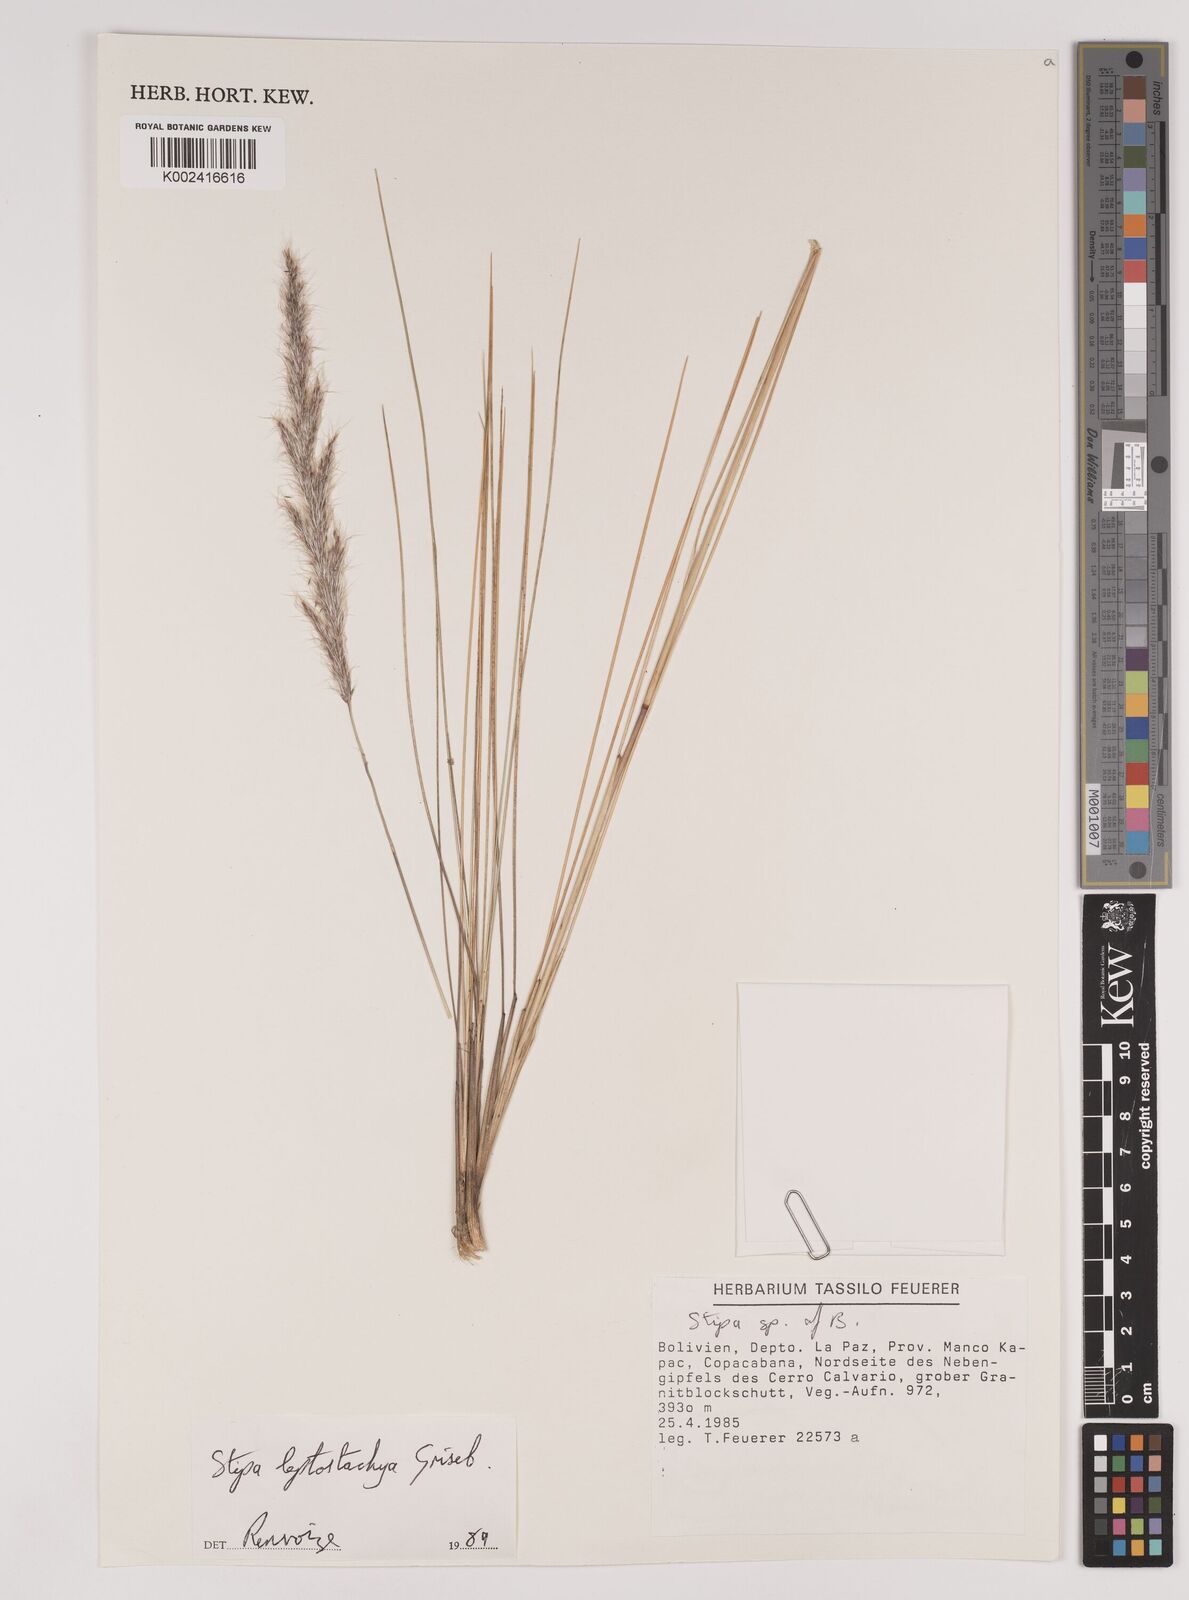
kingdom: Plantae
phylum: Tracheophyta
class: Liliopsida
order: Poales
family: Poaceae
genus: Austrostipa
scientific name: Austrostipa tenuifolia
